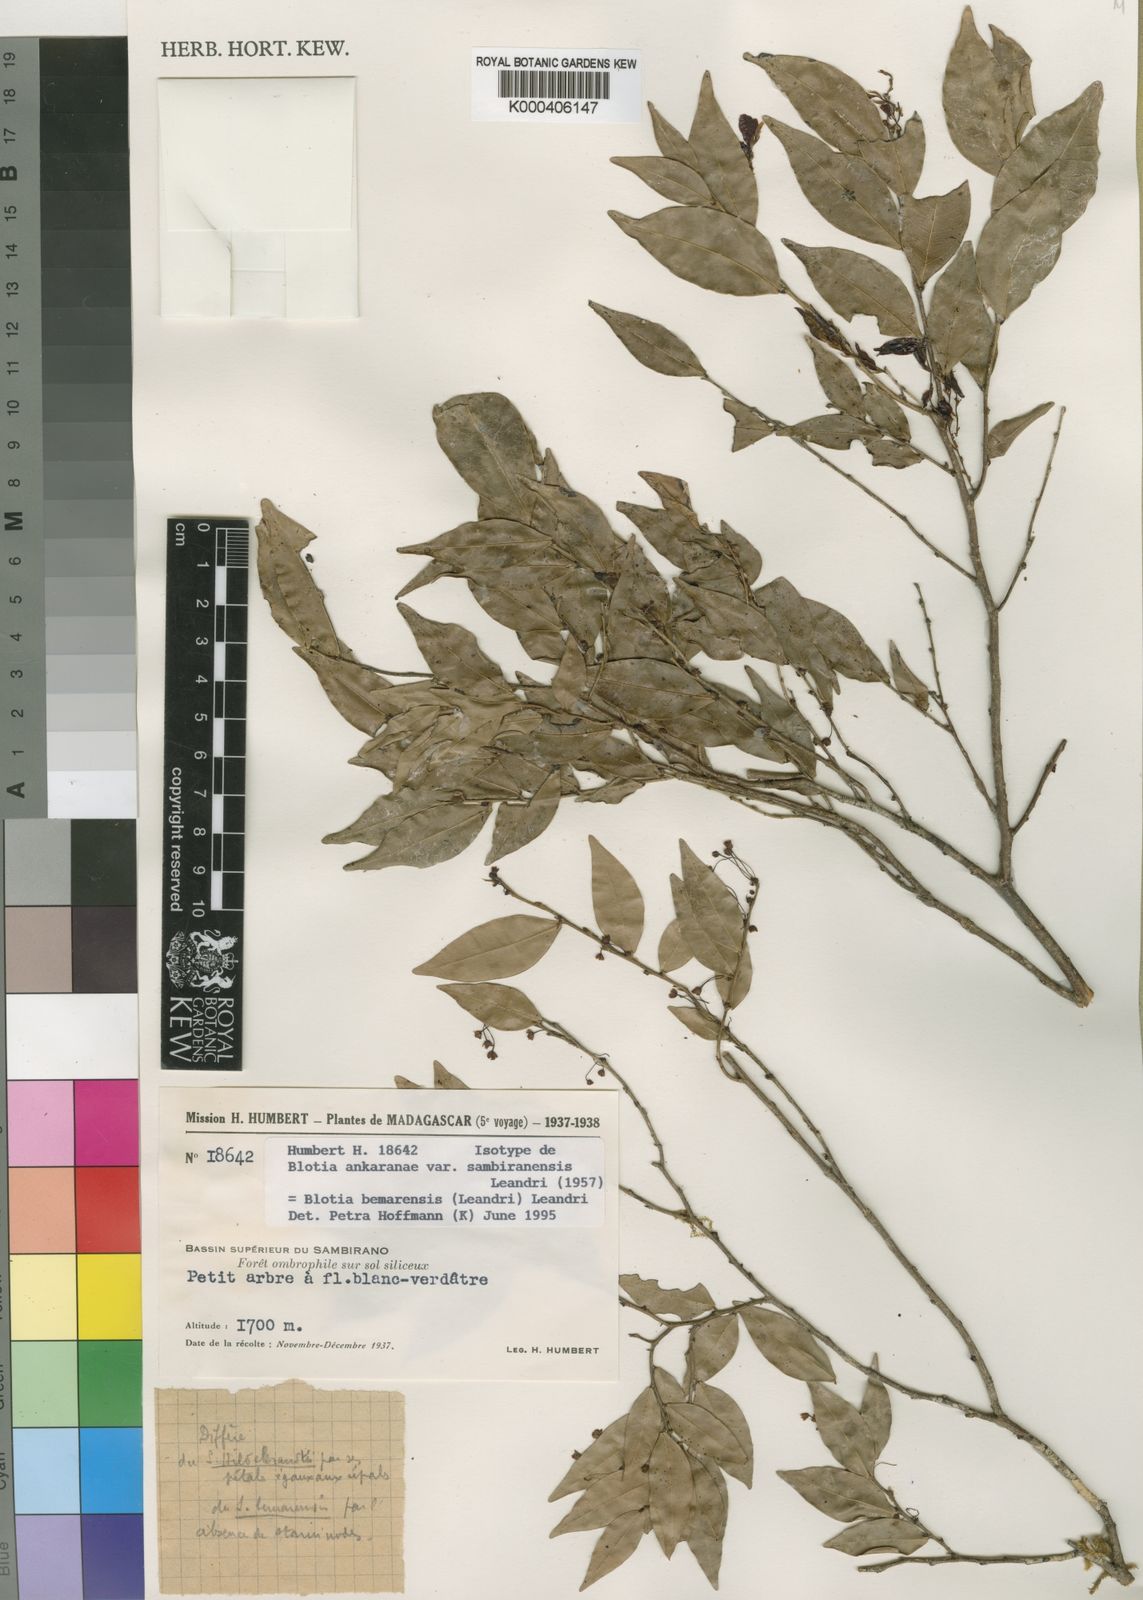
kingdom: Plantae
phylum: Tracheophyta
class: Magnoliopsida
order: Malpighiales
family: Phyllanthaceae
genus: Wielandia
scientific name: Wielandia bemarensis
